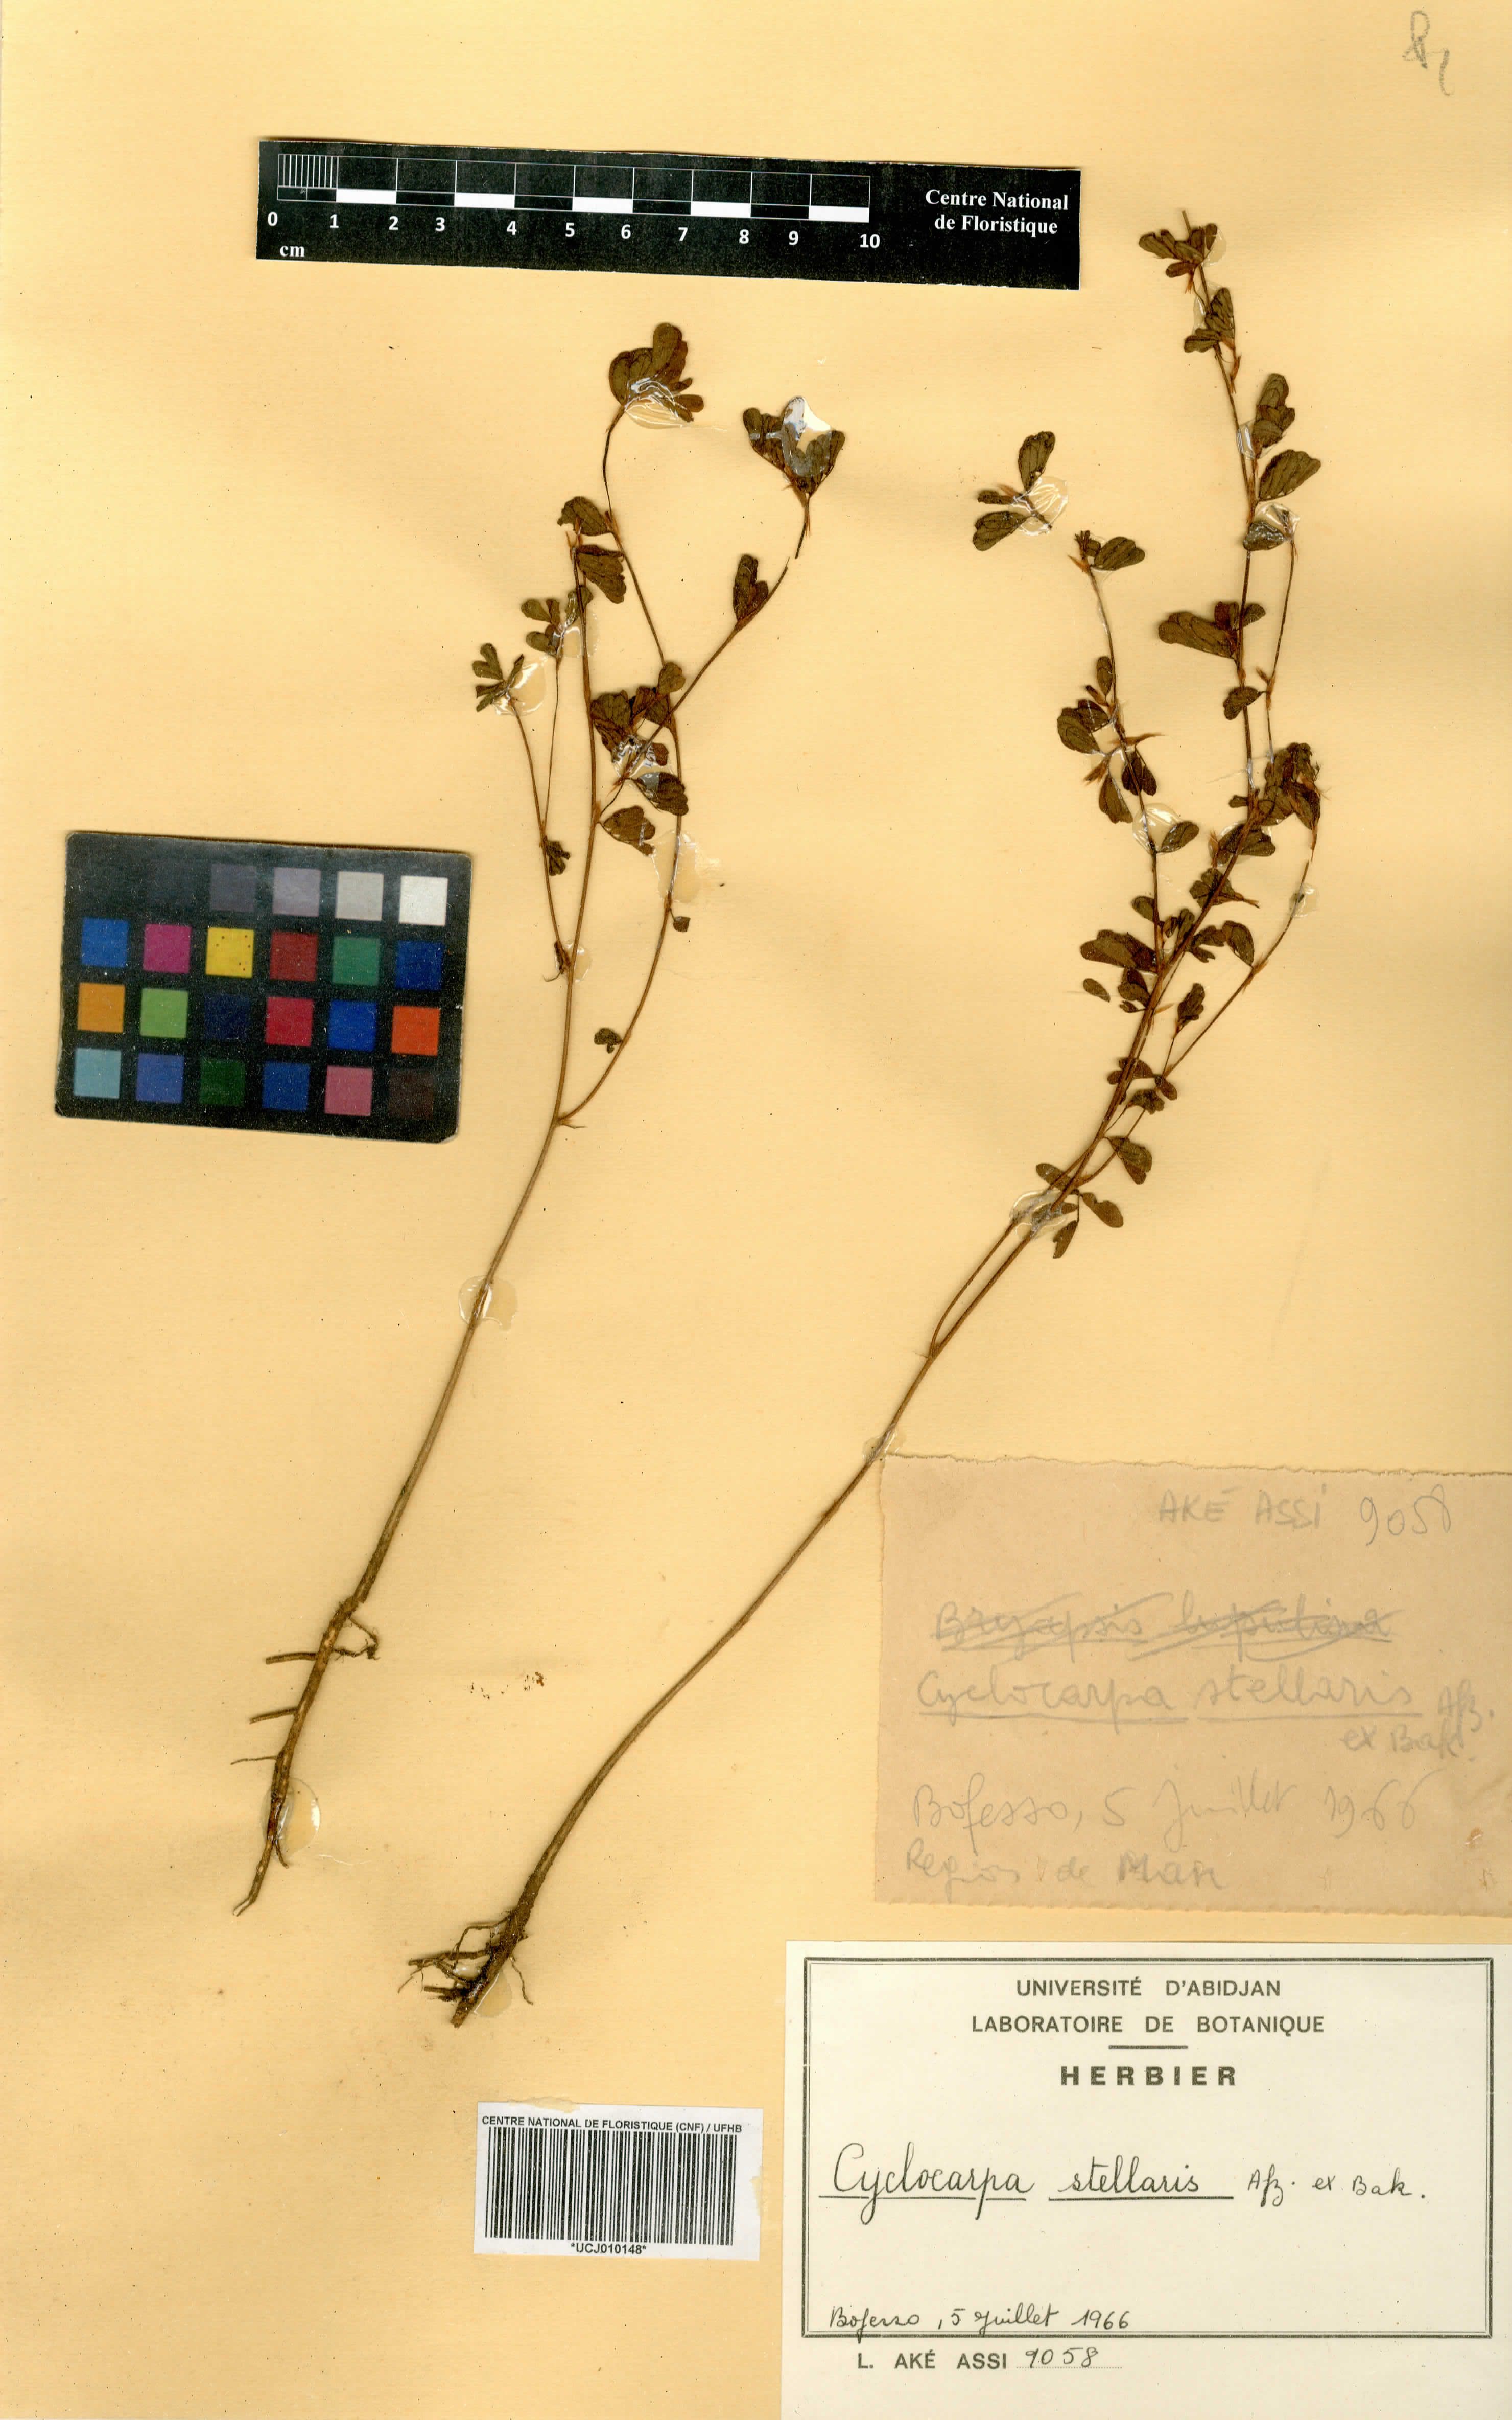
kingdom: Plantae
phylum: Tracheophyta
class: Magnoliopsida
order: Fabales
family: Fabaceae
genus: Cyclocarpa
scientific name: Cyclocarpa stellaris
